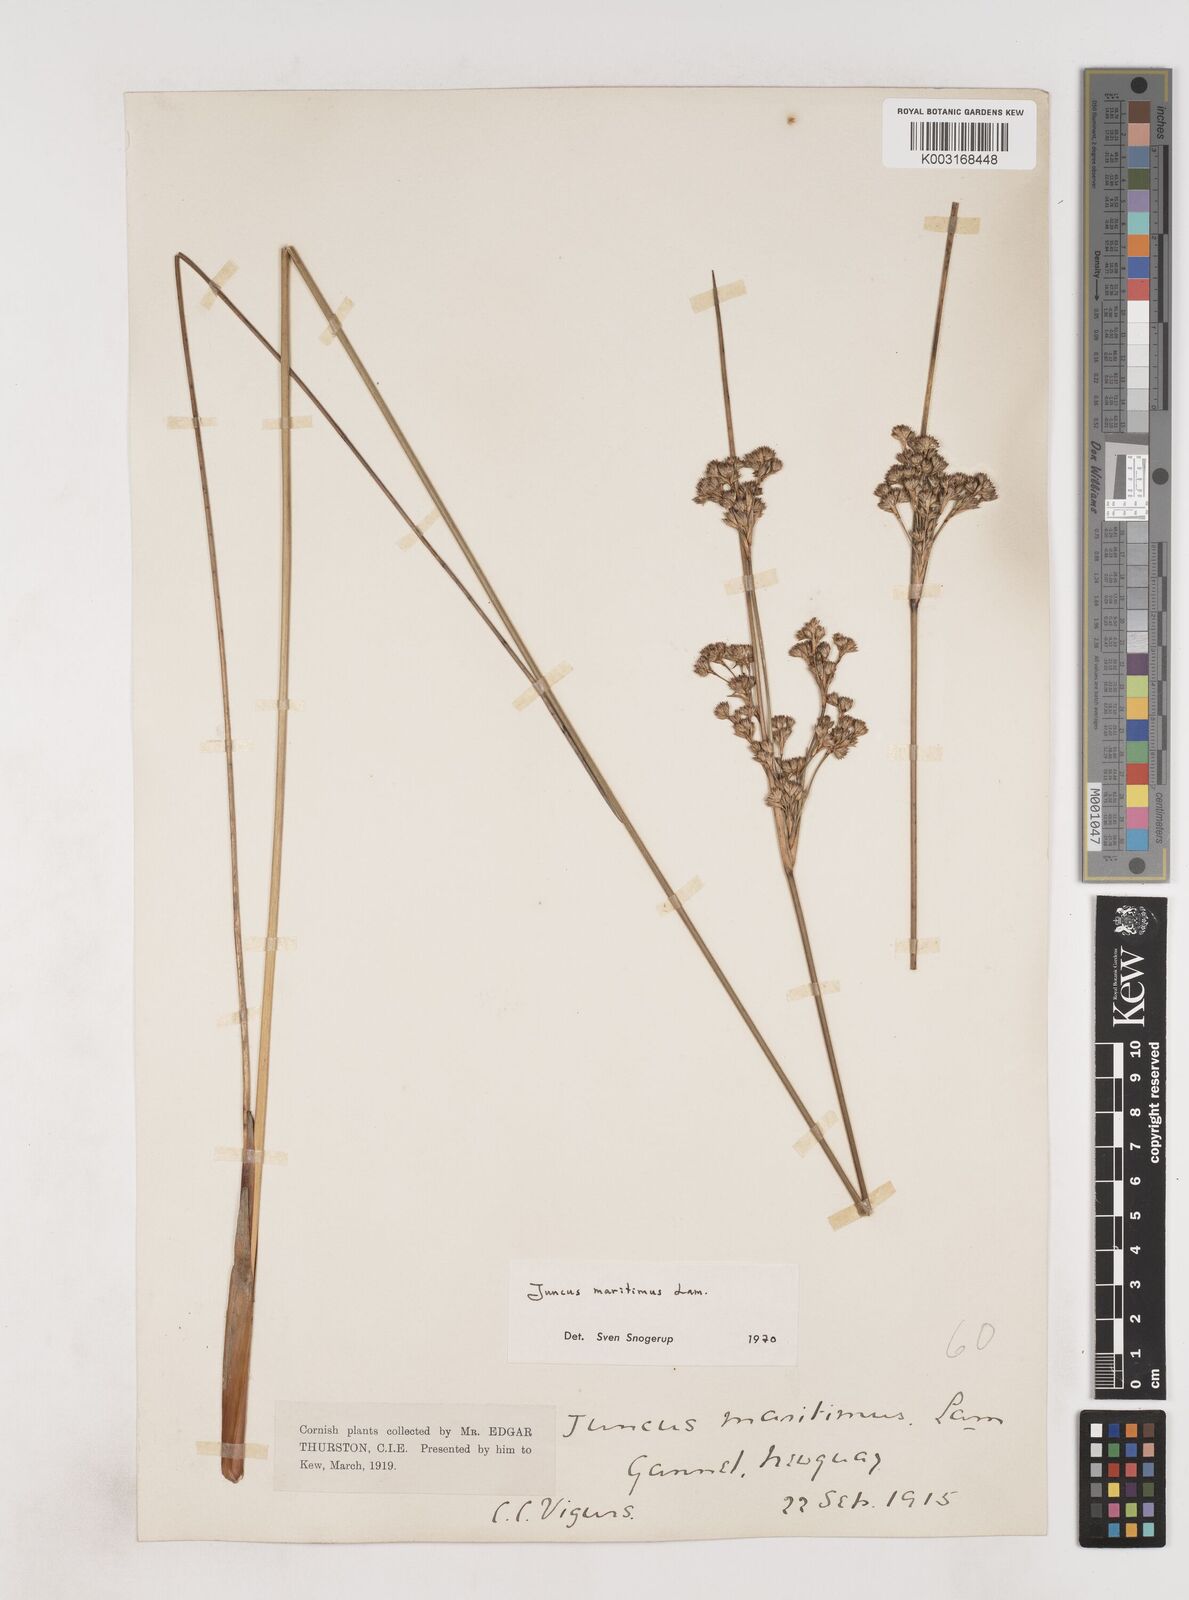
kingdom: Plantae
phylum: Tracheophyta
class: Liliopsida
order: Poales
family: Juncaceae
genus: Juncus
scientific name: Juncus maritimus
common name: Sea rush
